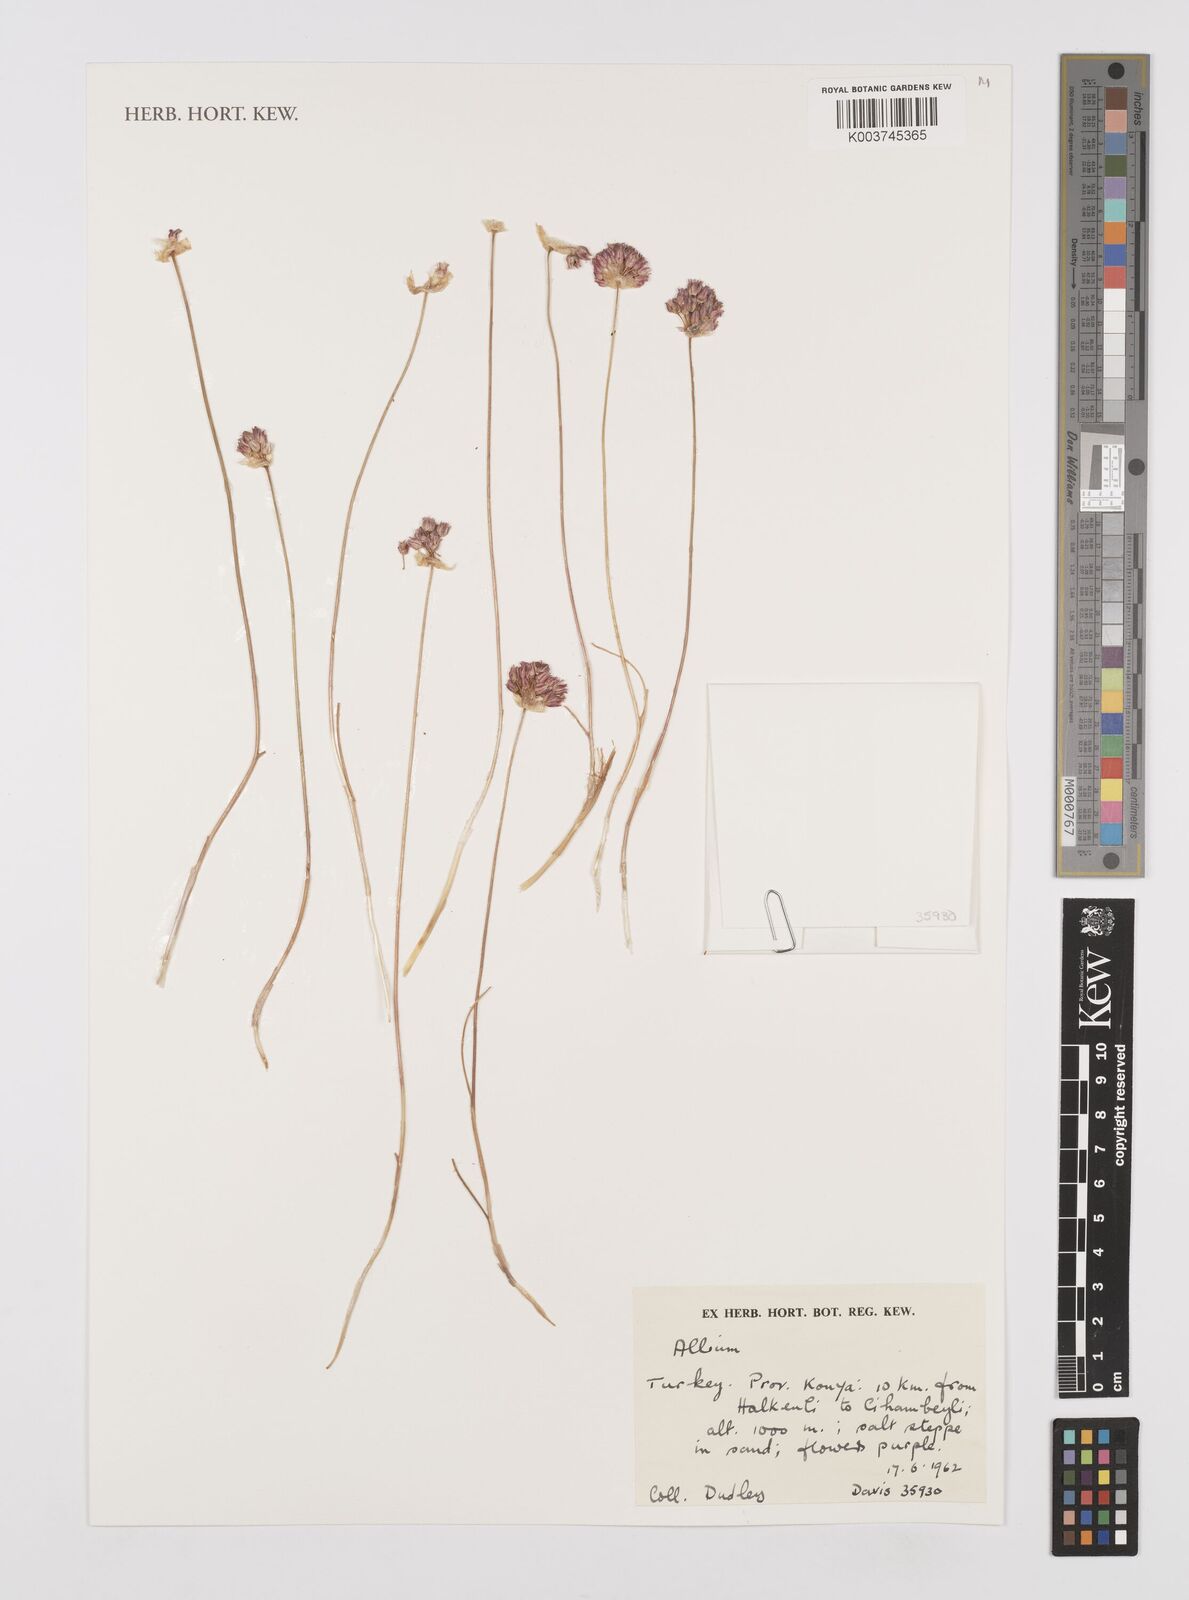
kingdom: Plantae
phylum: Tracheophyta
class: Liliopsida
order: Asparagales
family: Amaryllidaceae
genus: Allium
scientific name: Allium
